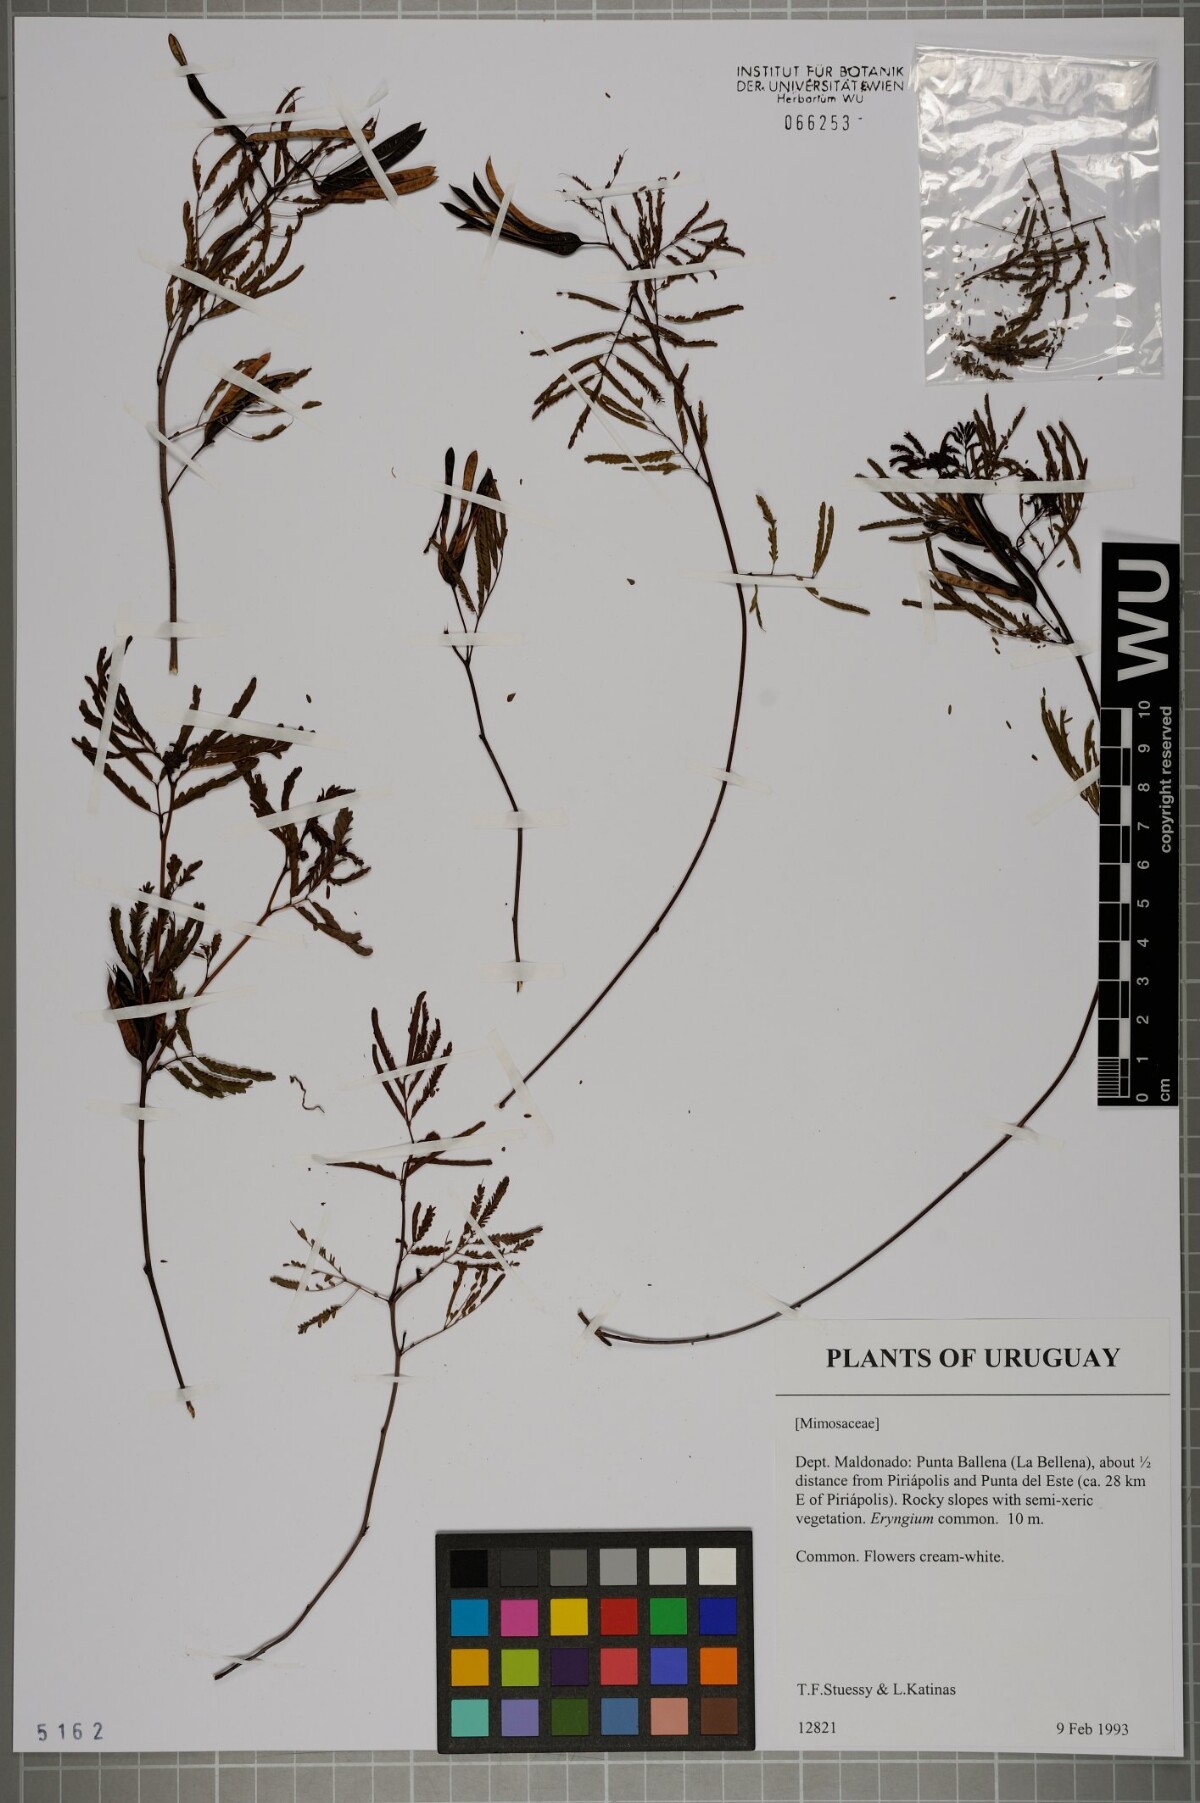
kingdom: Plantae
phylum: Tracheophyta
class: Magnoliopsida
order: Fabales
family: Fabaceae
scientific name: Fabaceae
